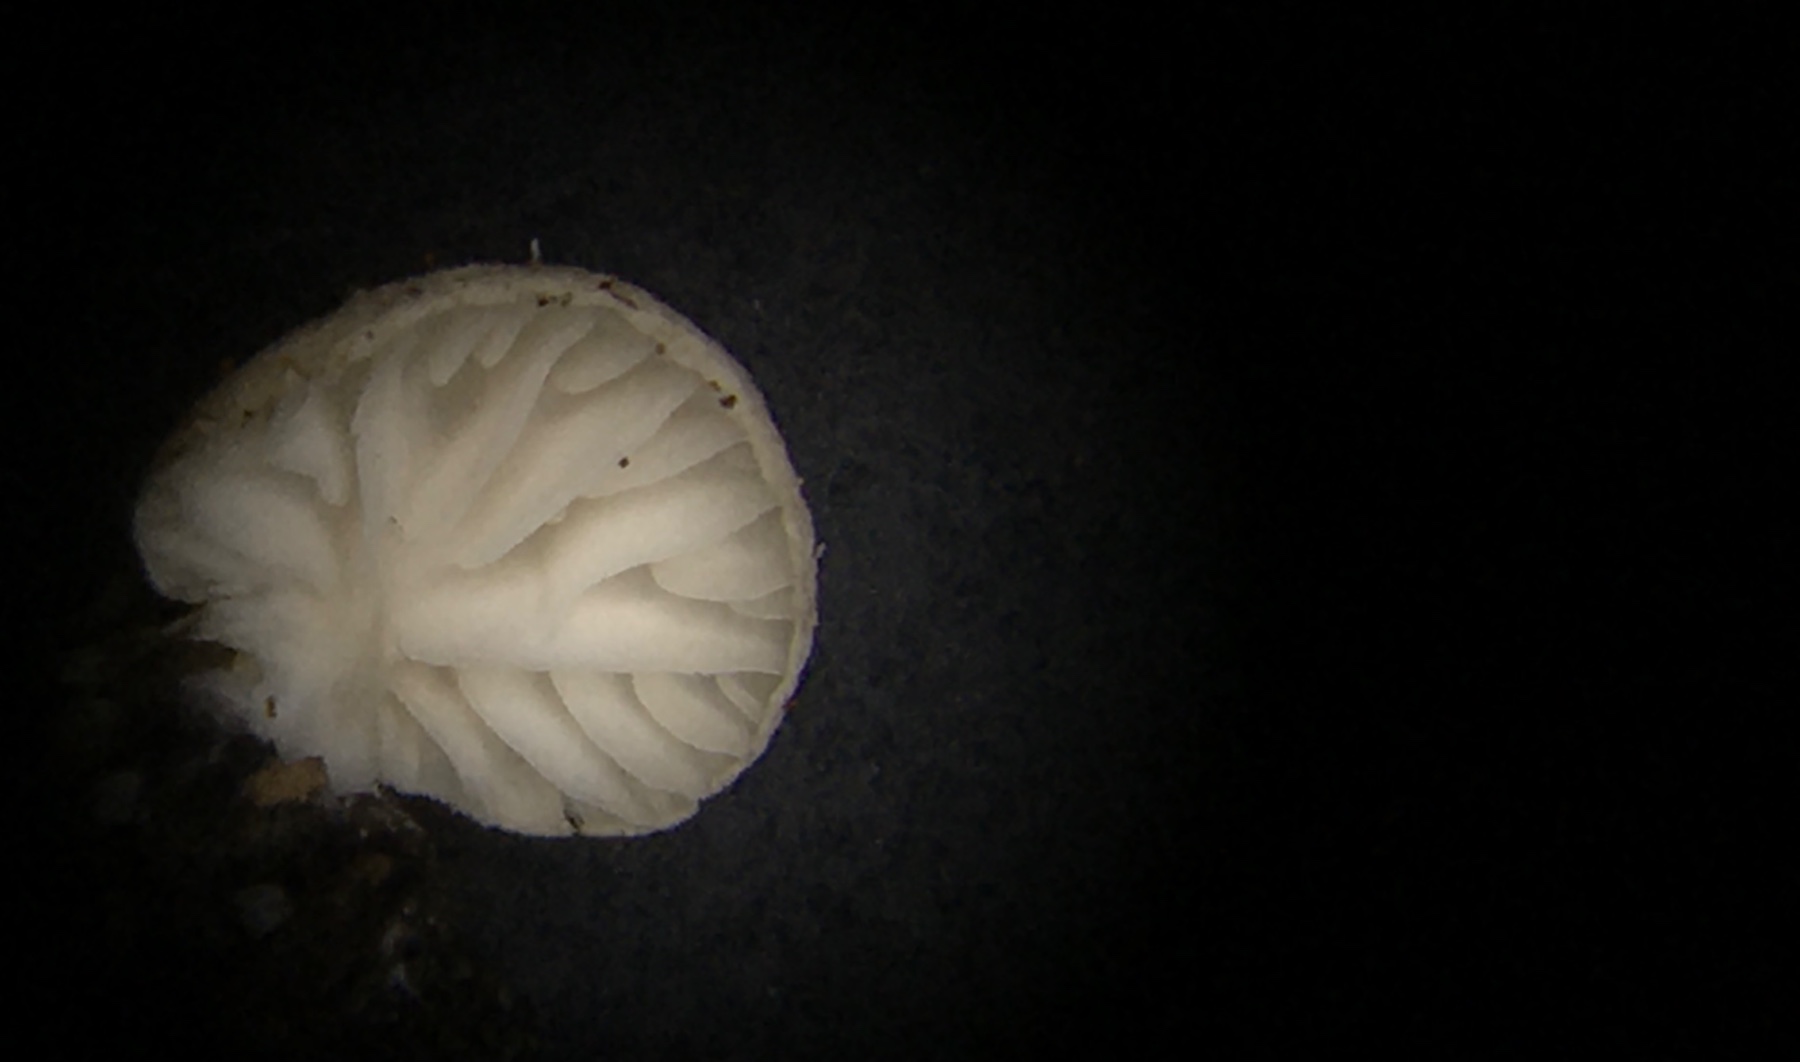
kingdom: Fungi
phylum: Basidiomycota
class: Agaricomycetes
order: Agaricales
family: Entolomataceae
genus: Clitopilus
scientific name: Clitopilus hobsonii
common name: Miller's oysterling
